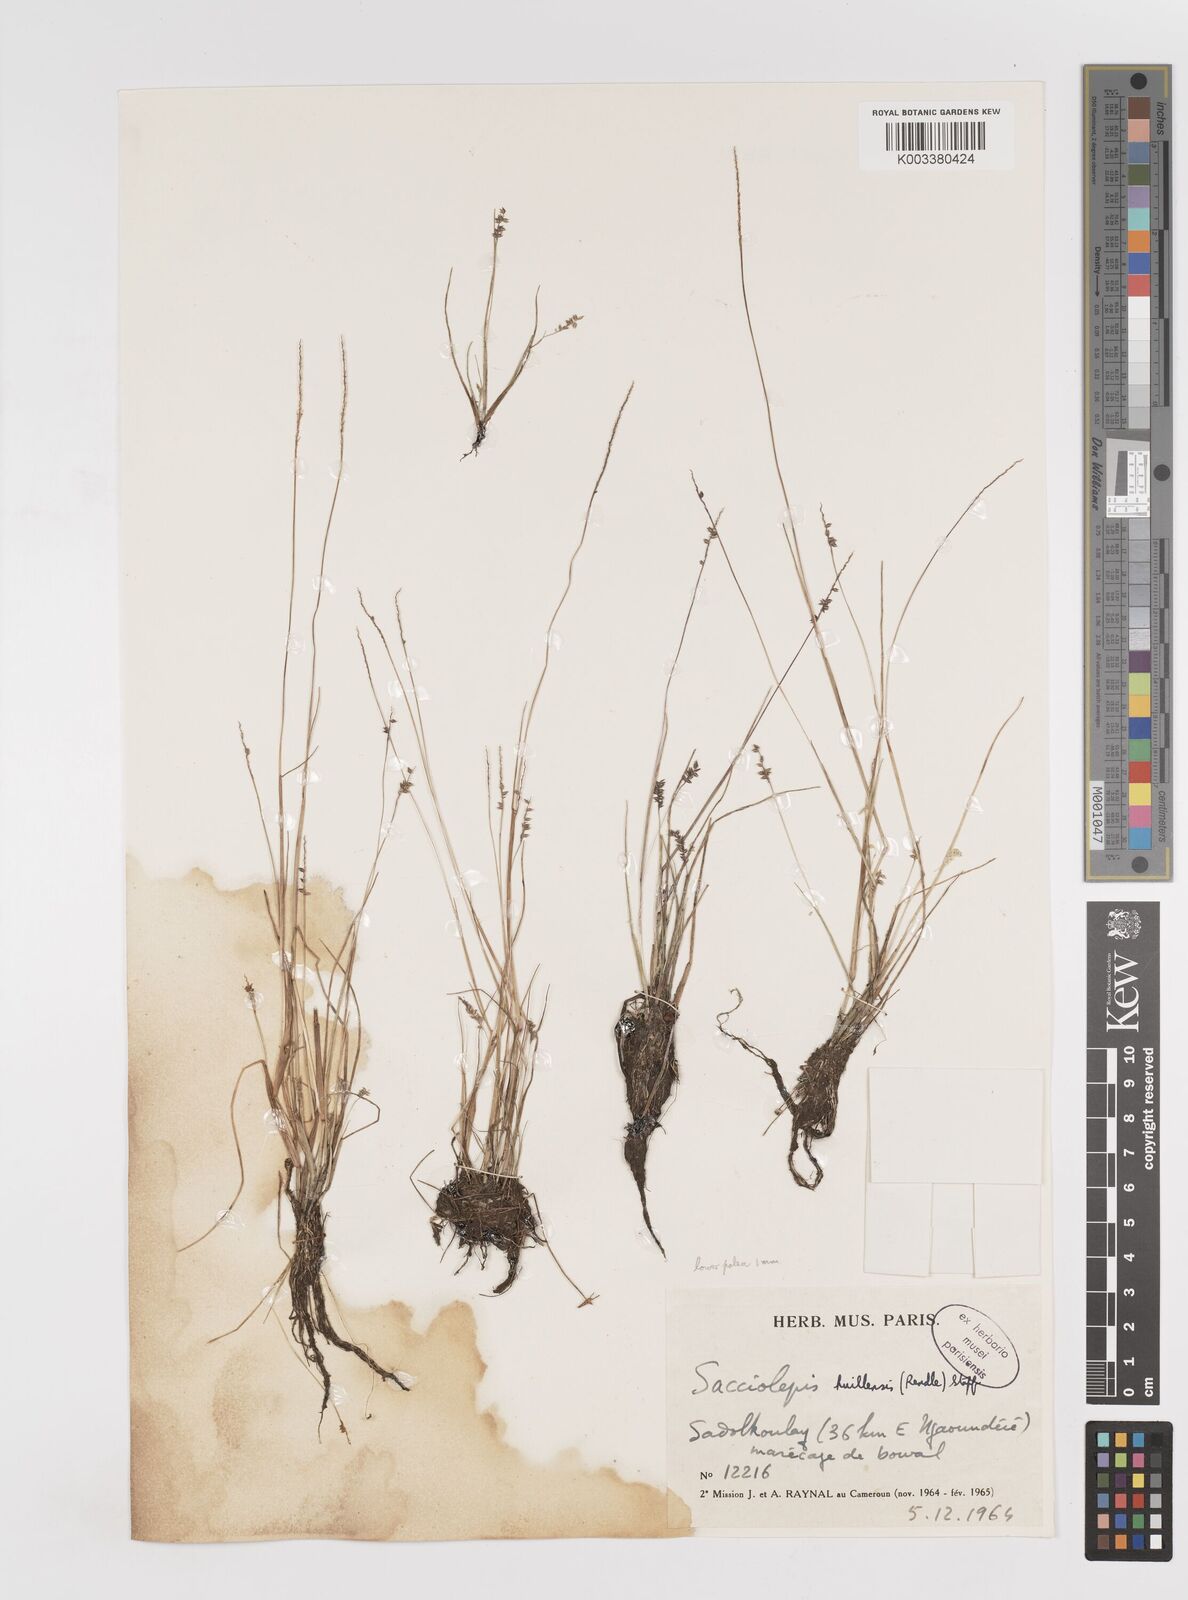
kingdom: Plantae
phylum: Tracheophyta
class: Liliopsida
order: Poales
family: Poaceae
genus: Sacciolepis
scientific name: Sacciolepis myosuroides
